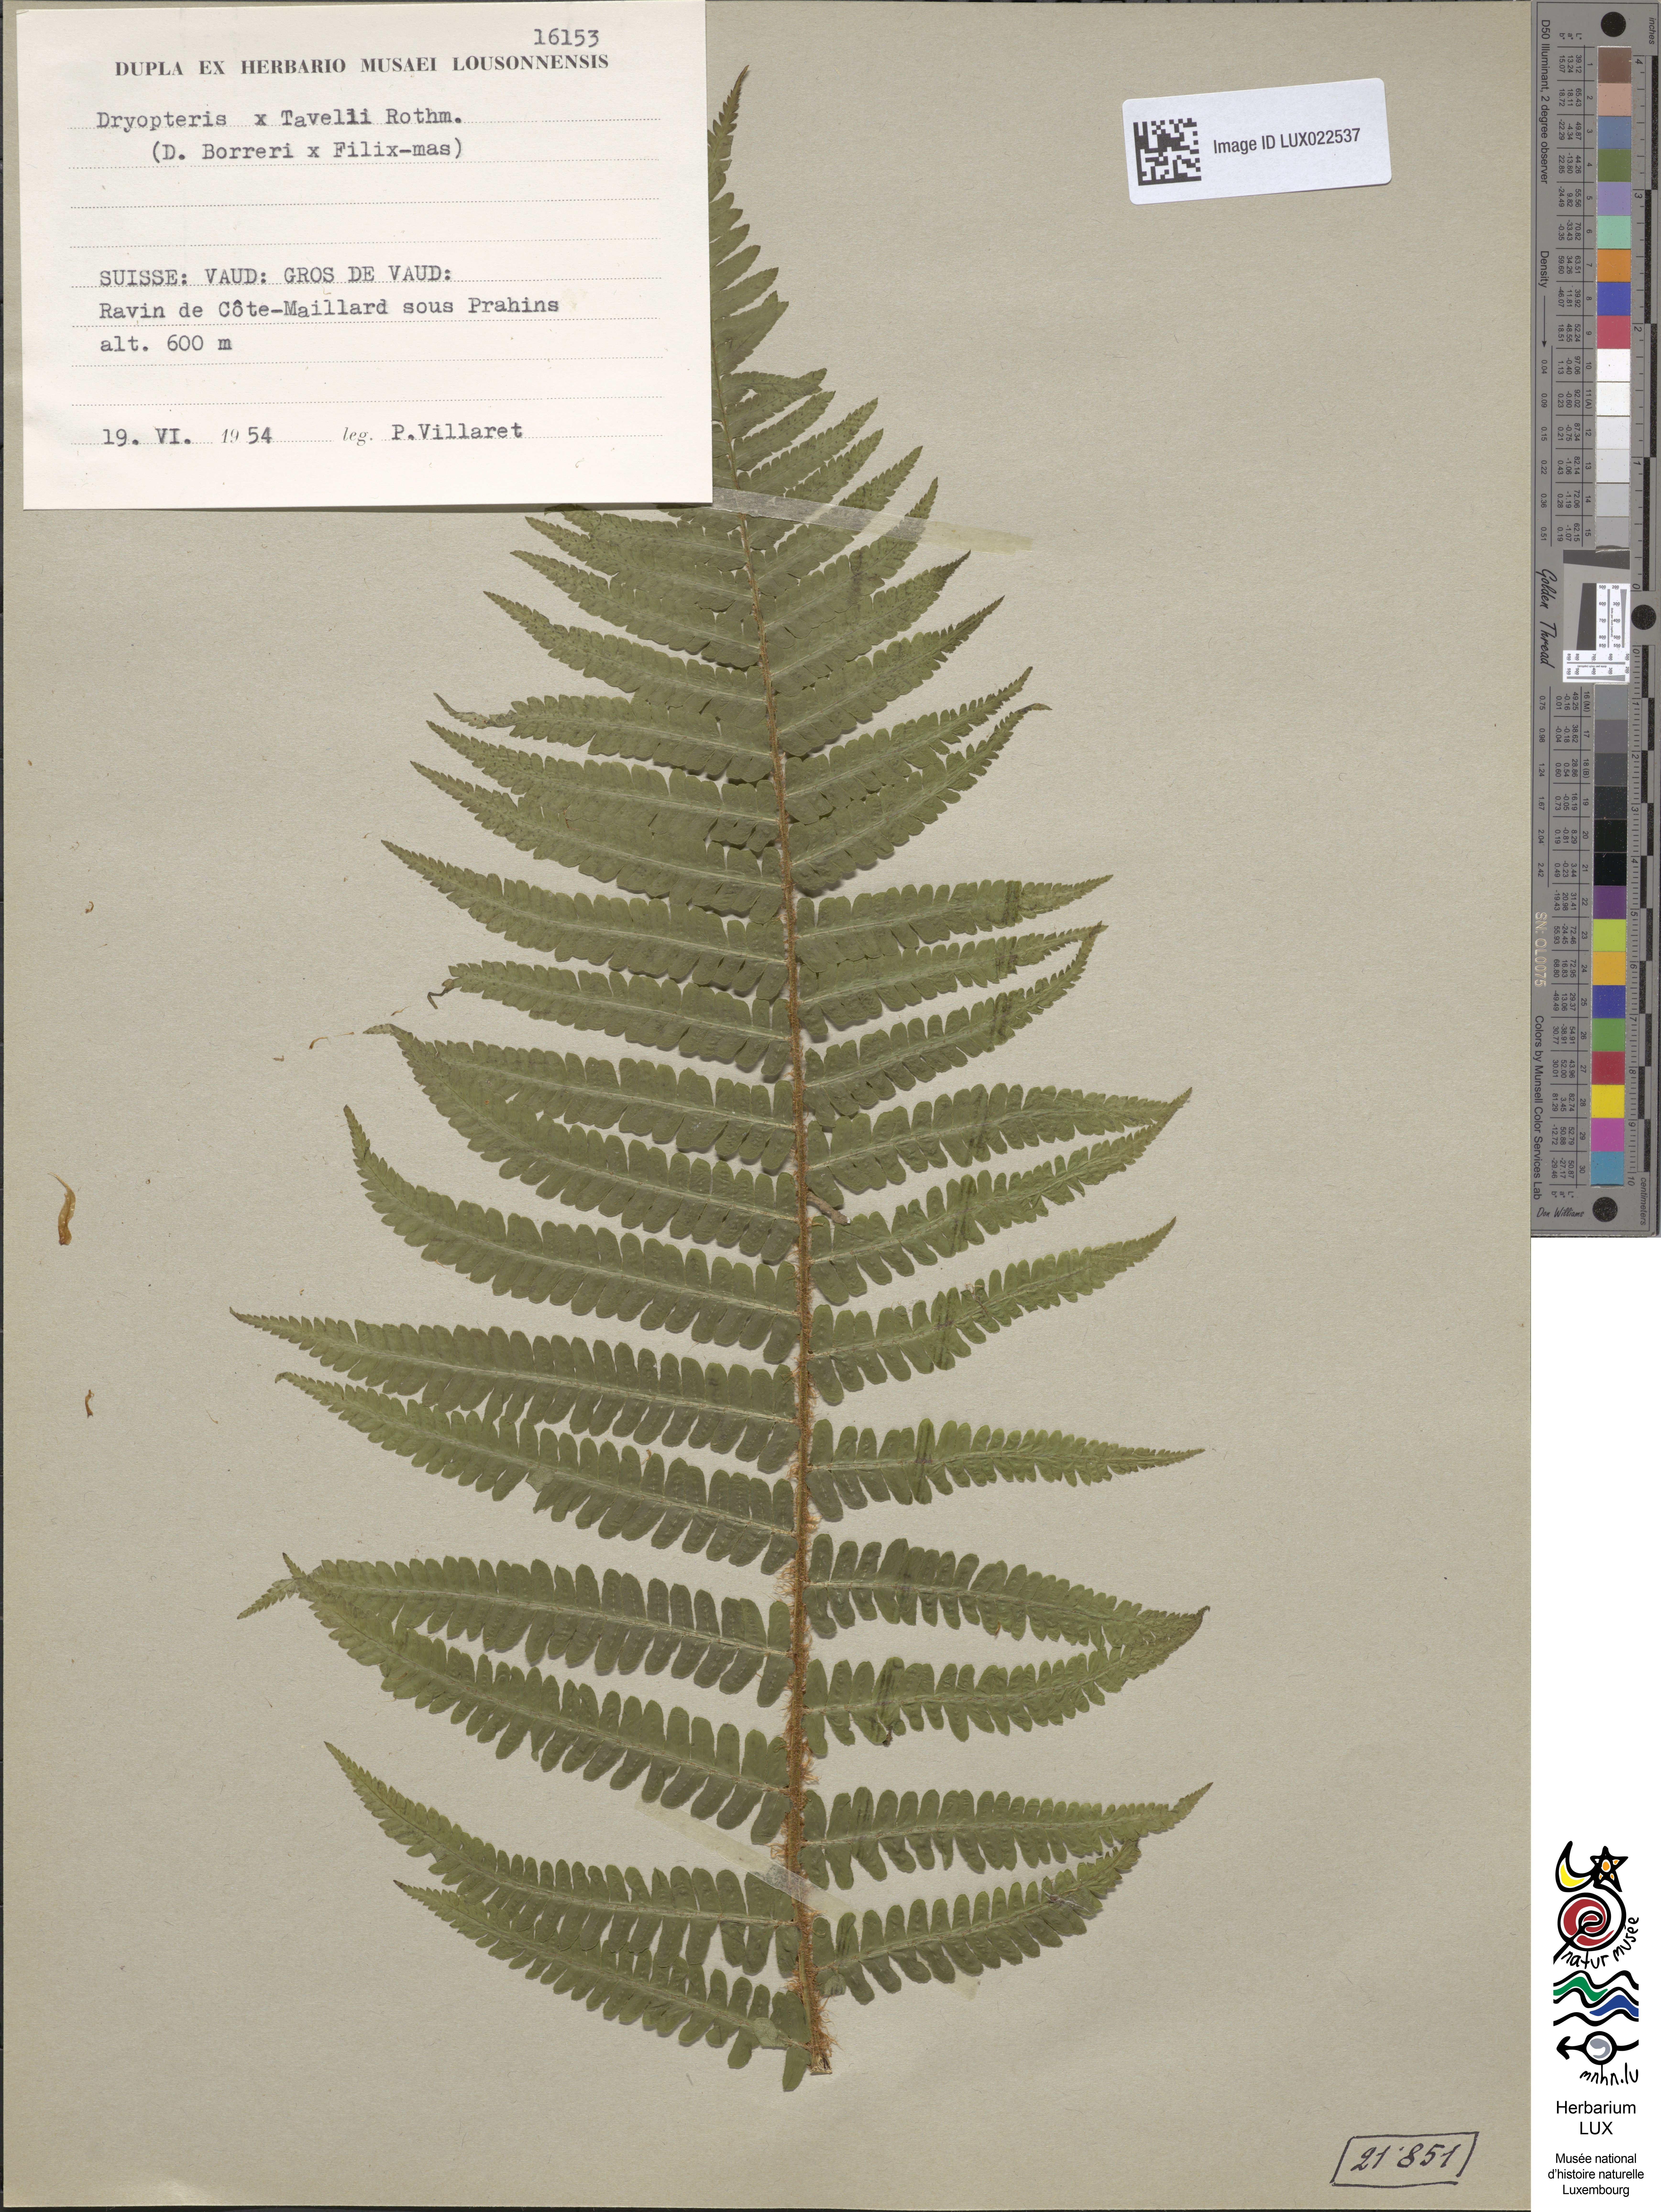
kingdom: Plantae
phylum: Tracheophyta
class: Polypodiopsida
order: Polypodiales
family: Dryopteridaceae
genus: Dryopteris
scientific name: Dryopteris borreri
